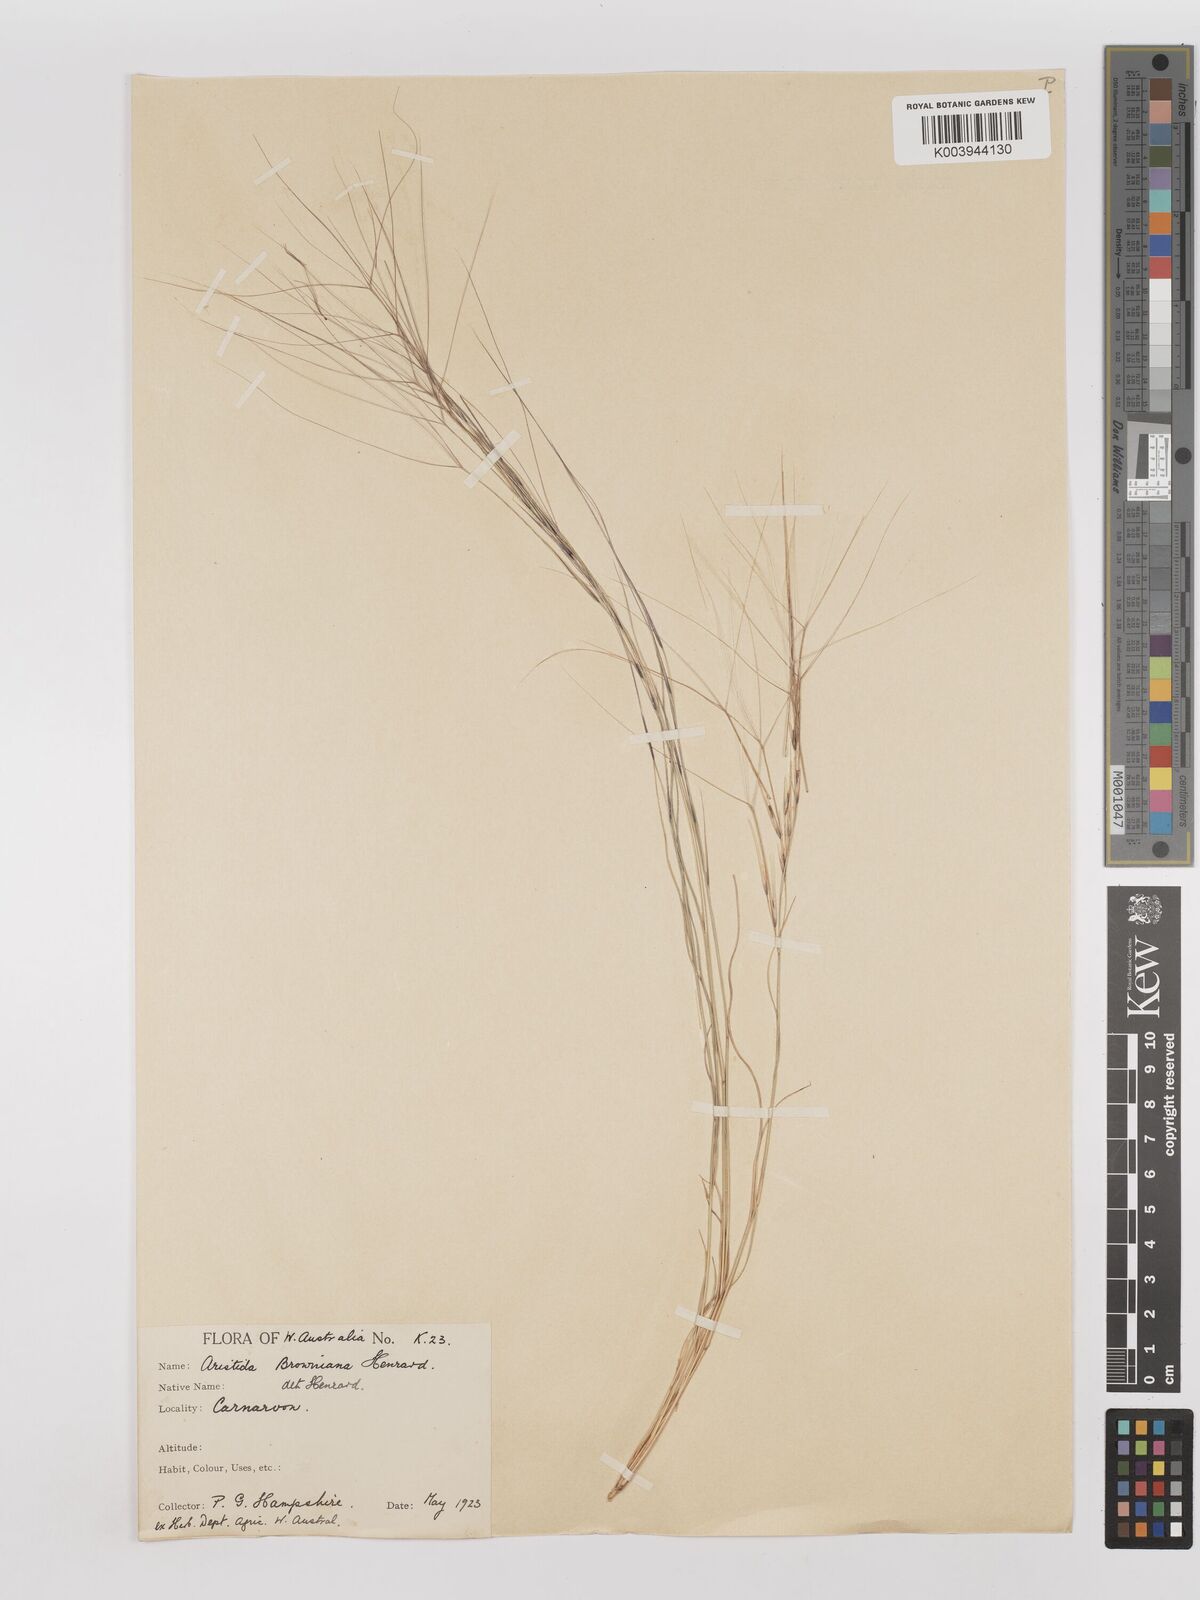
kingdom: Plantae
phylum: Tracheophyta
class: Liliopsida
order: Poales
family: Poaceae
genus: Aristida
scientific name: Aristida holathera
